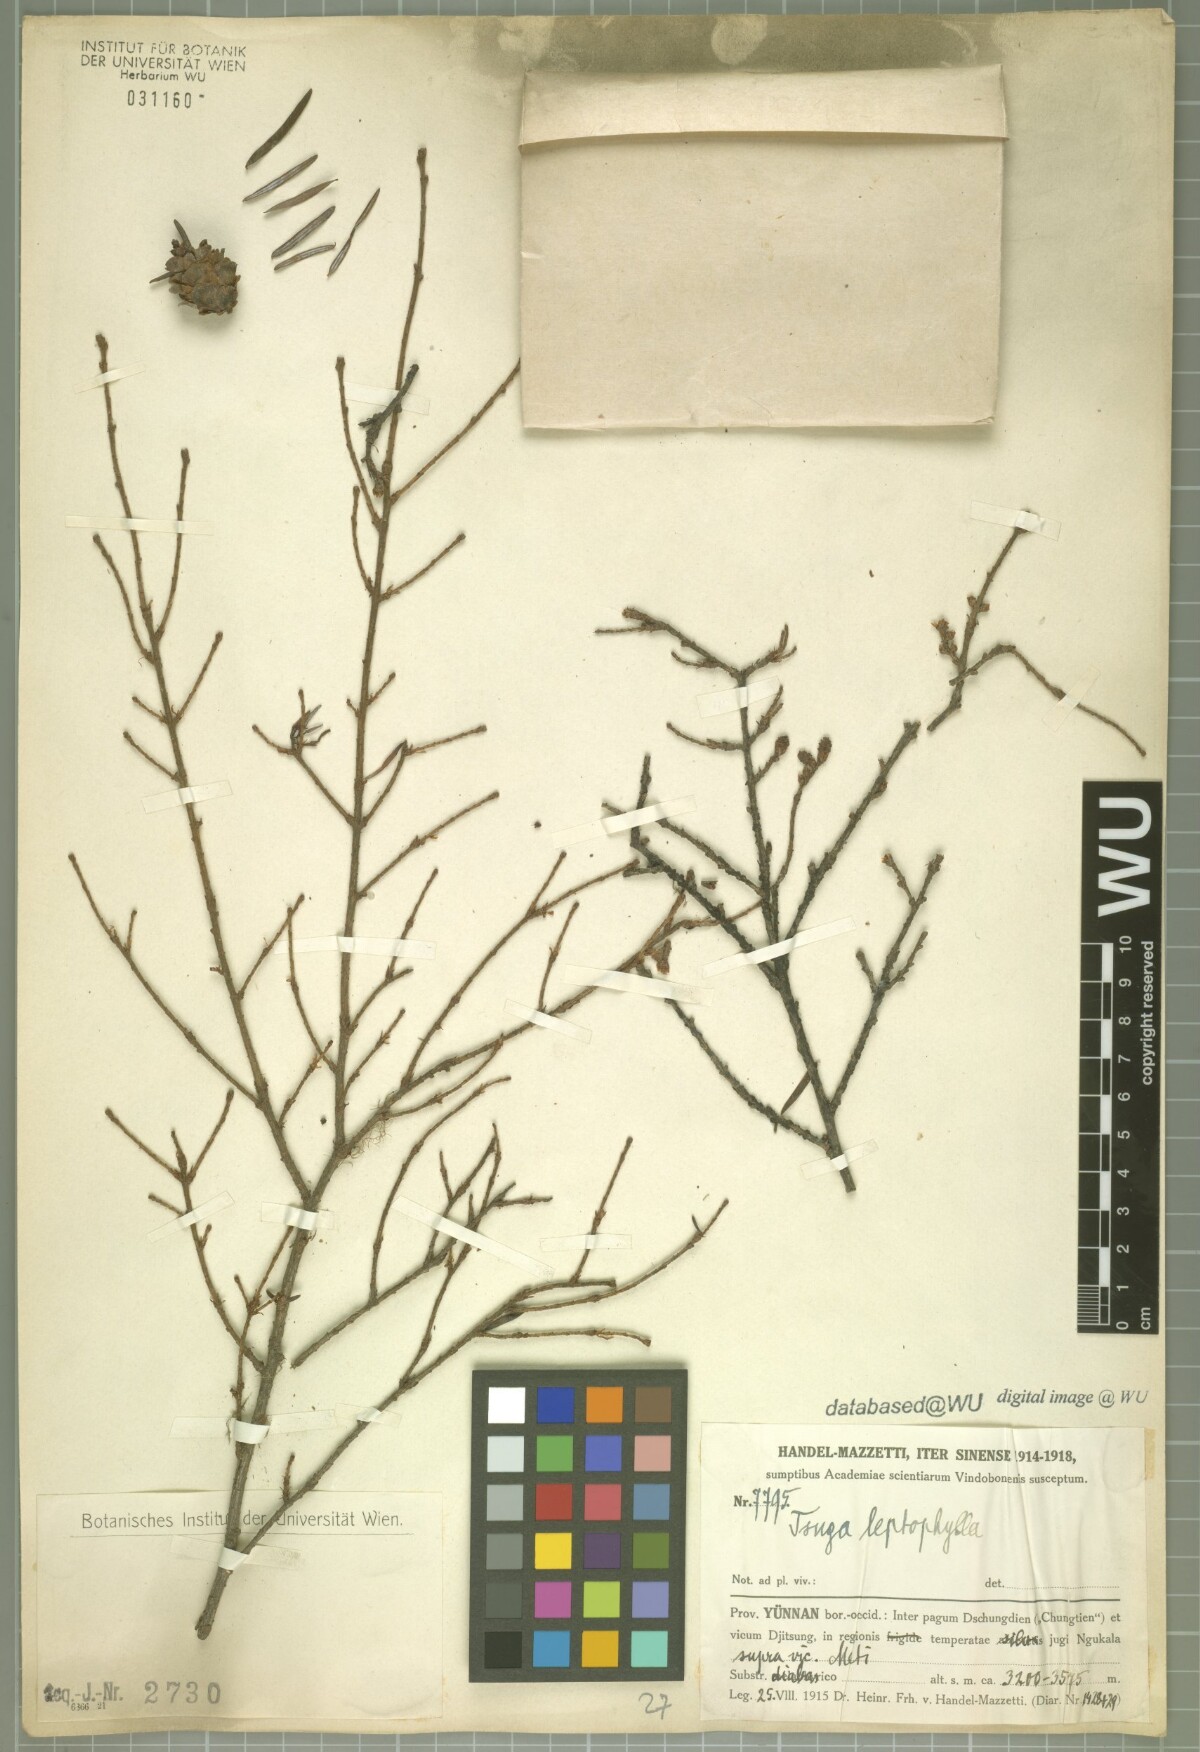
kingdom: Plantae
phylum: Tracheophyta
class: Pinopsida
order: Pinales
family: Pinaceae
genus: Tsuga
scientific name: Tsuga dumosa
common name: Himalayan hemlock
